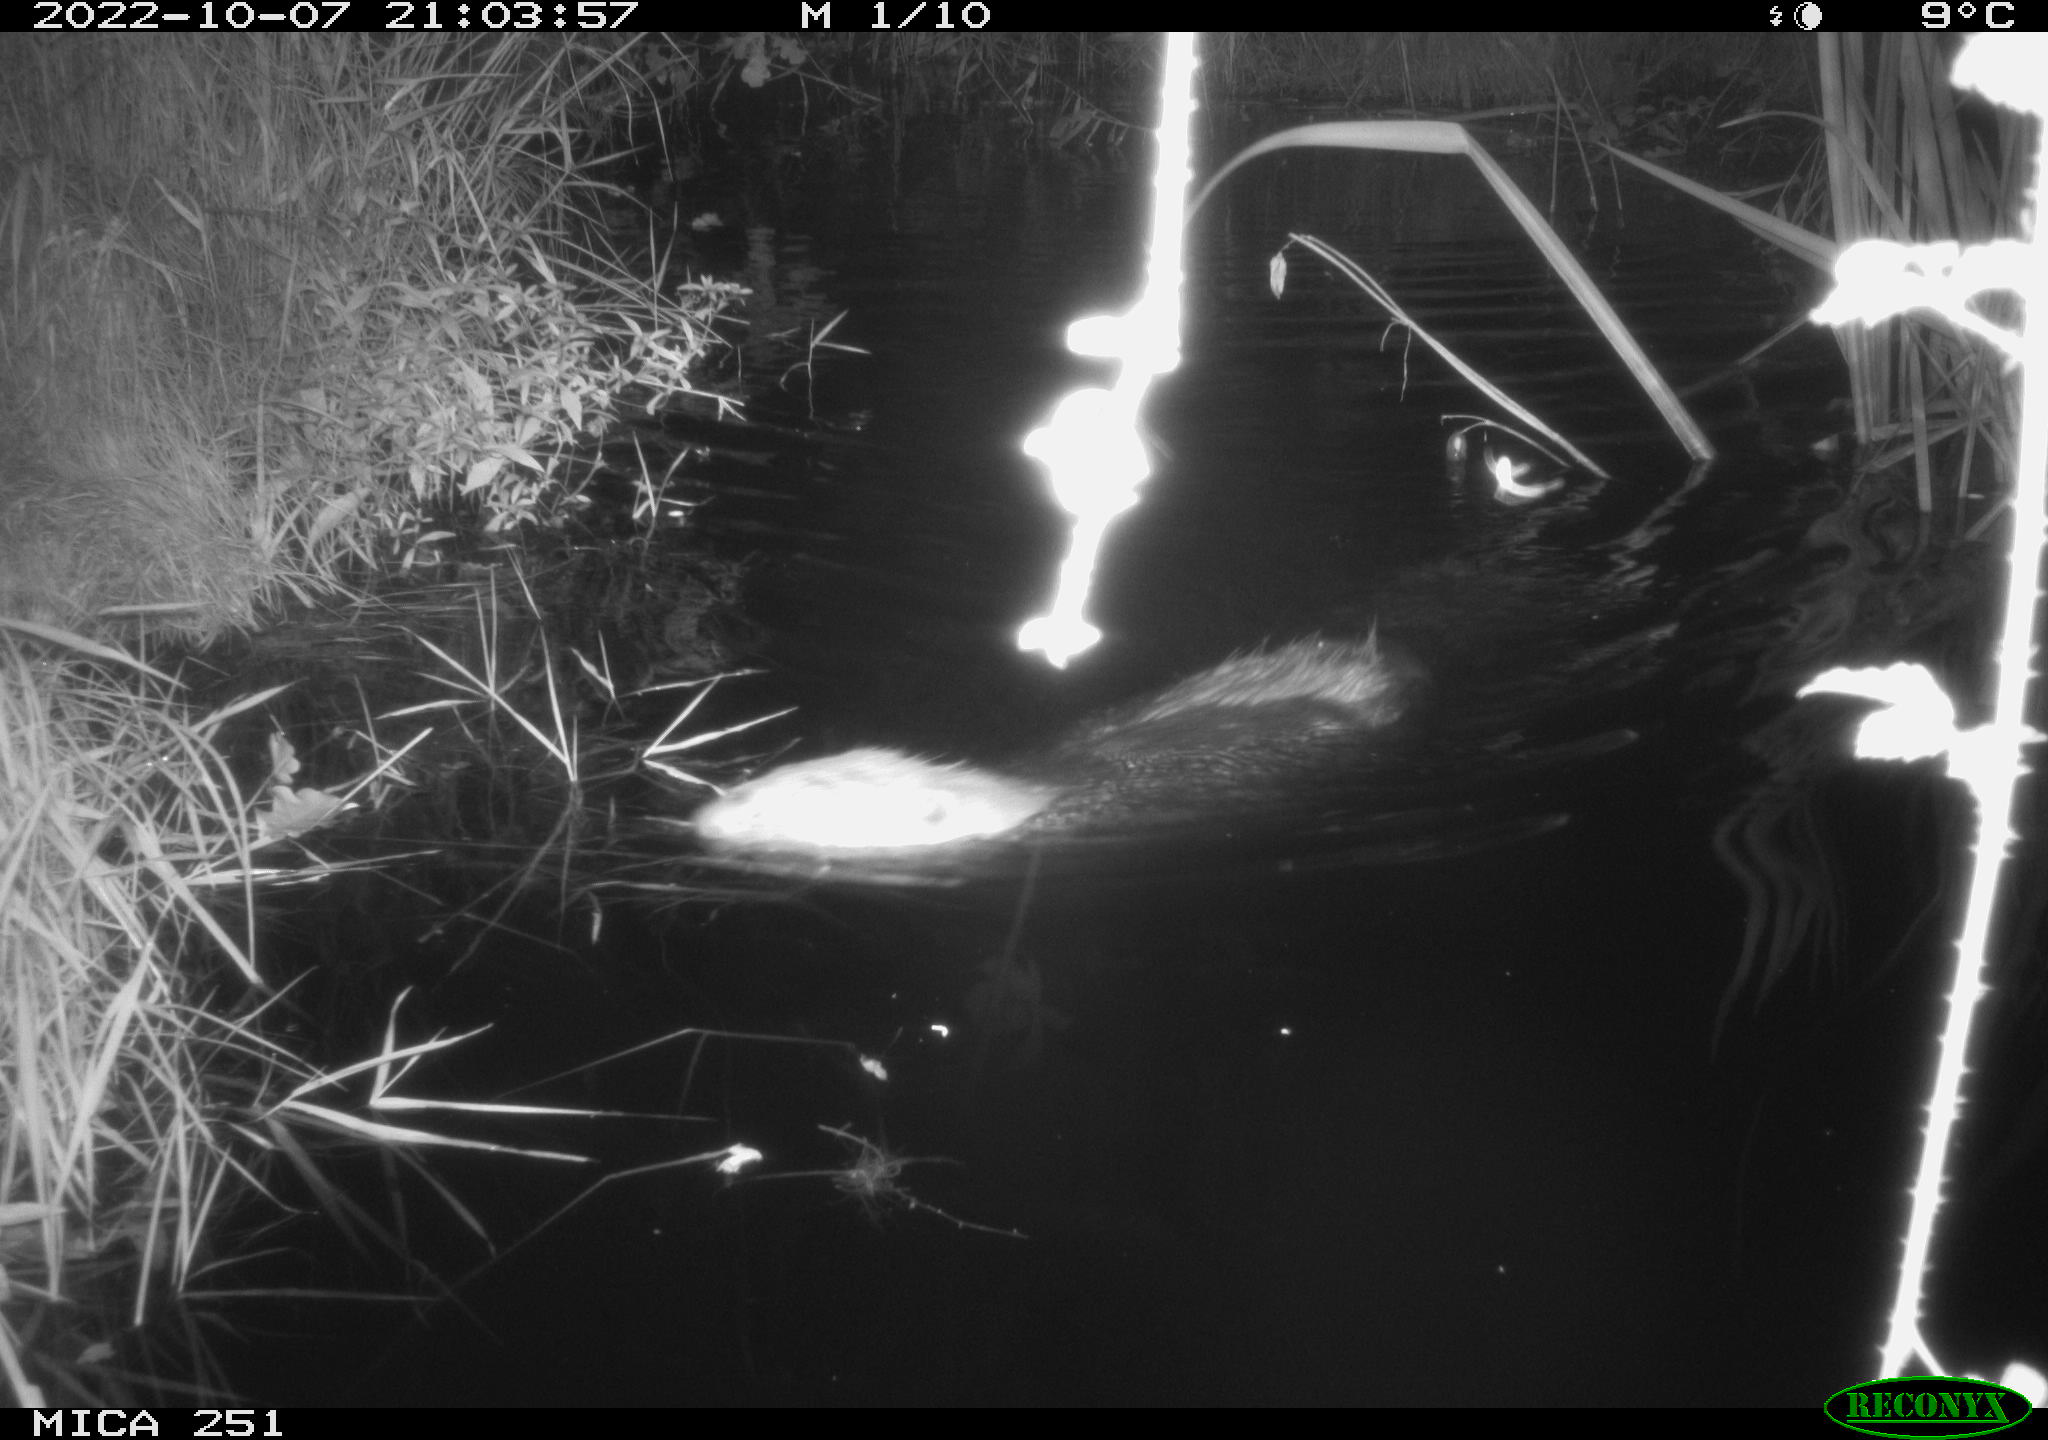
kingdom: Animalia
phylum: Chordata
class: Mammalia
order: Rodentia
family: Castoridae
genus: Castor
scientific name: Castor fiber
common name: Eurasian beaver
